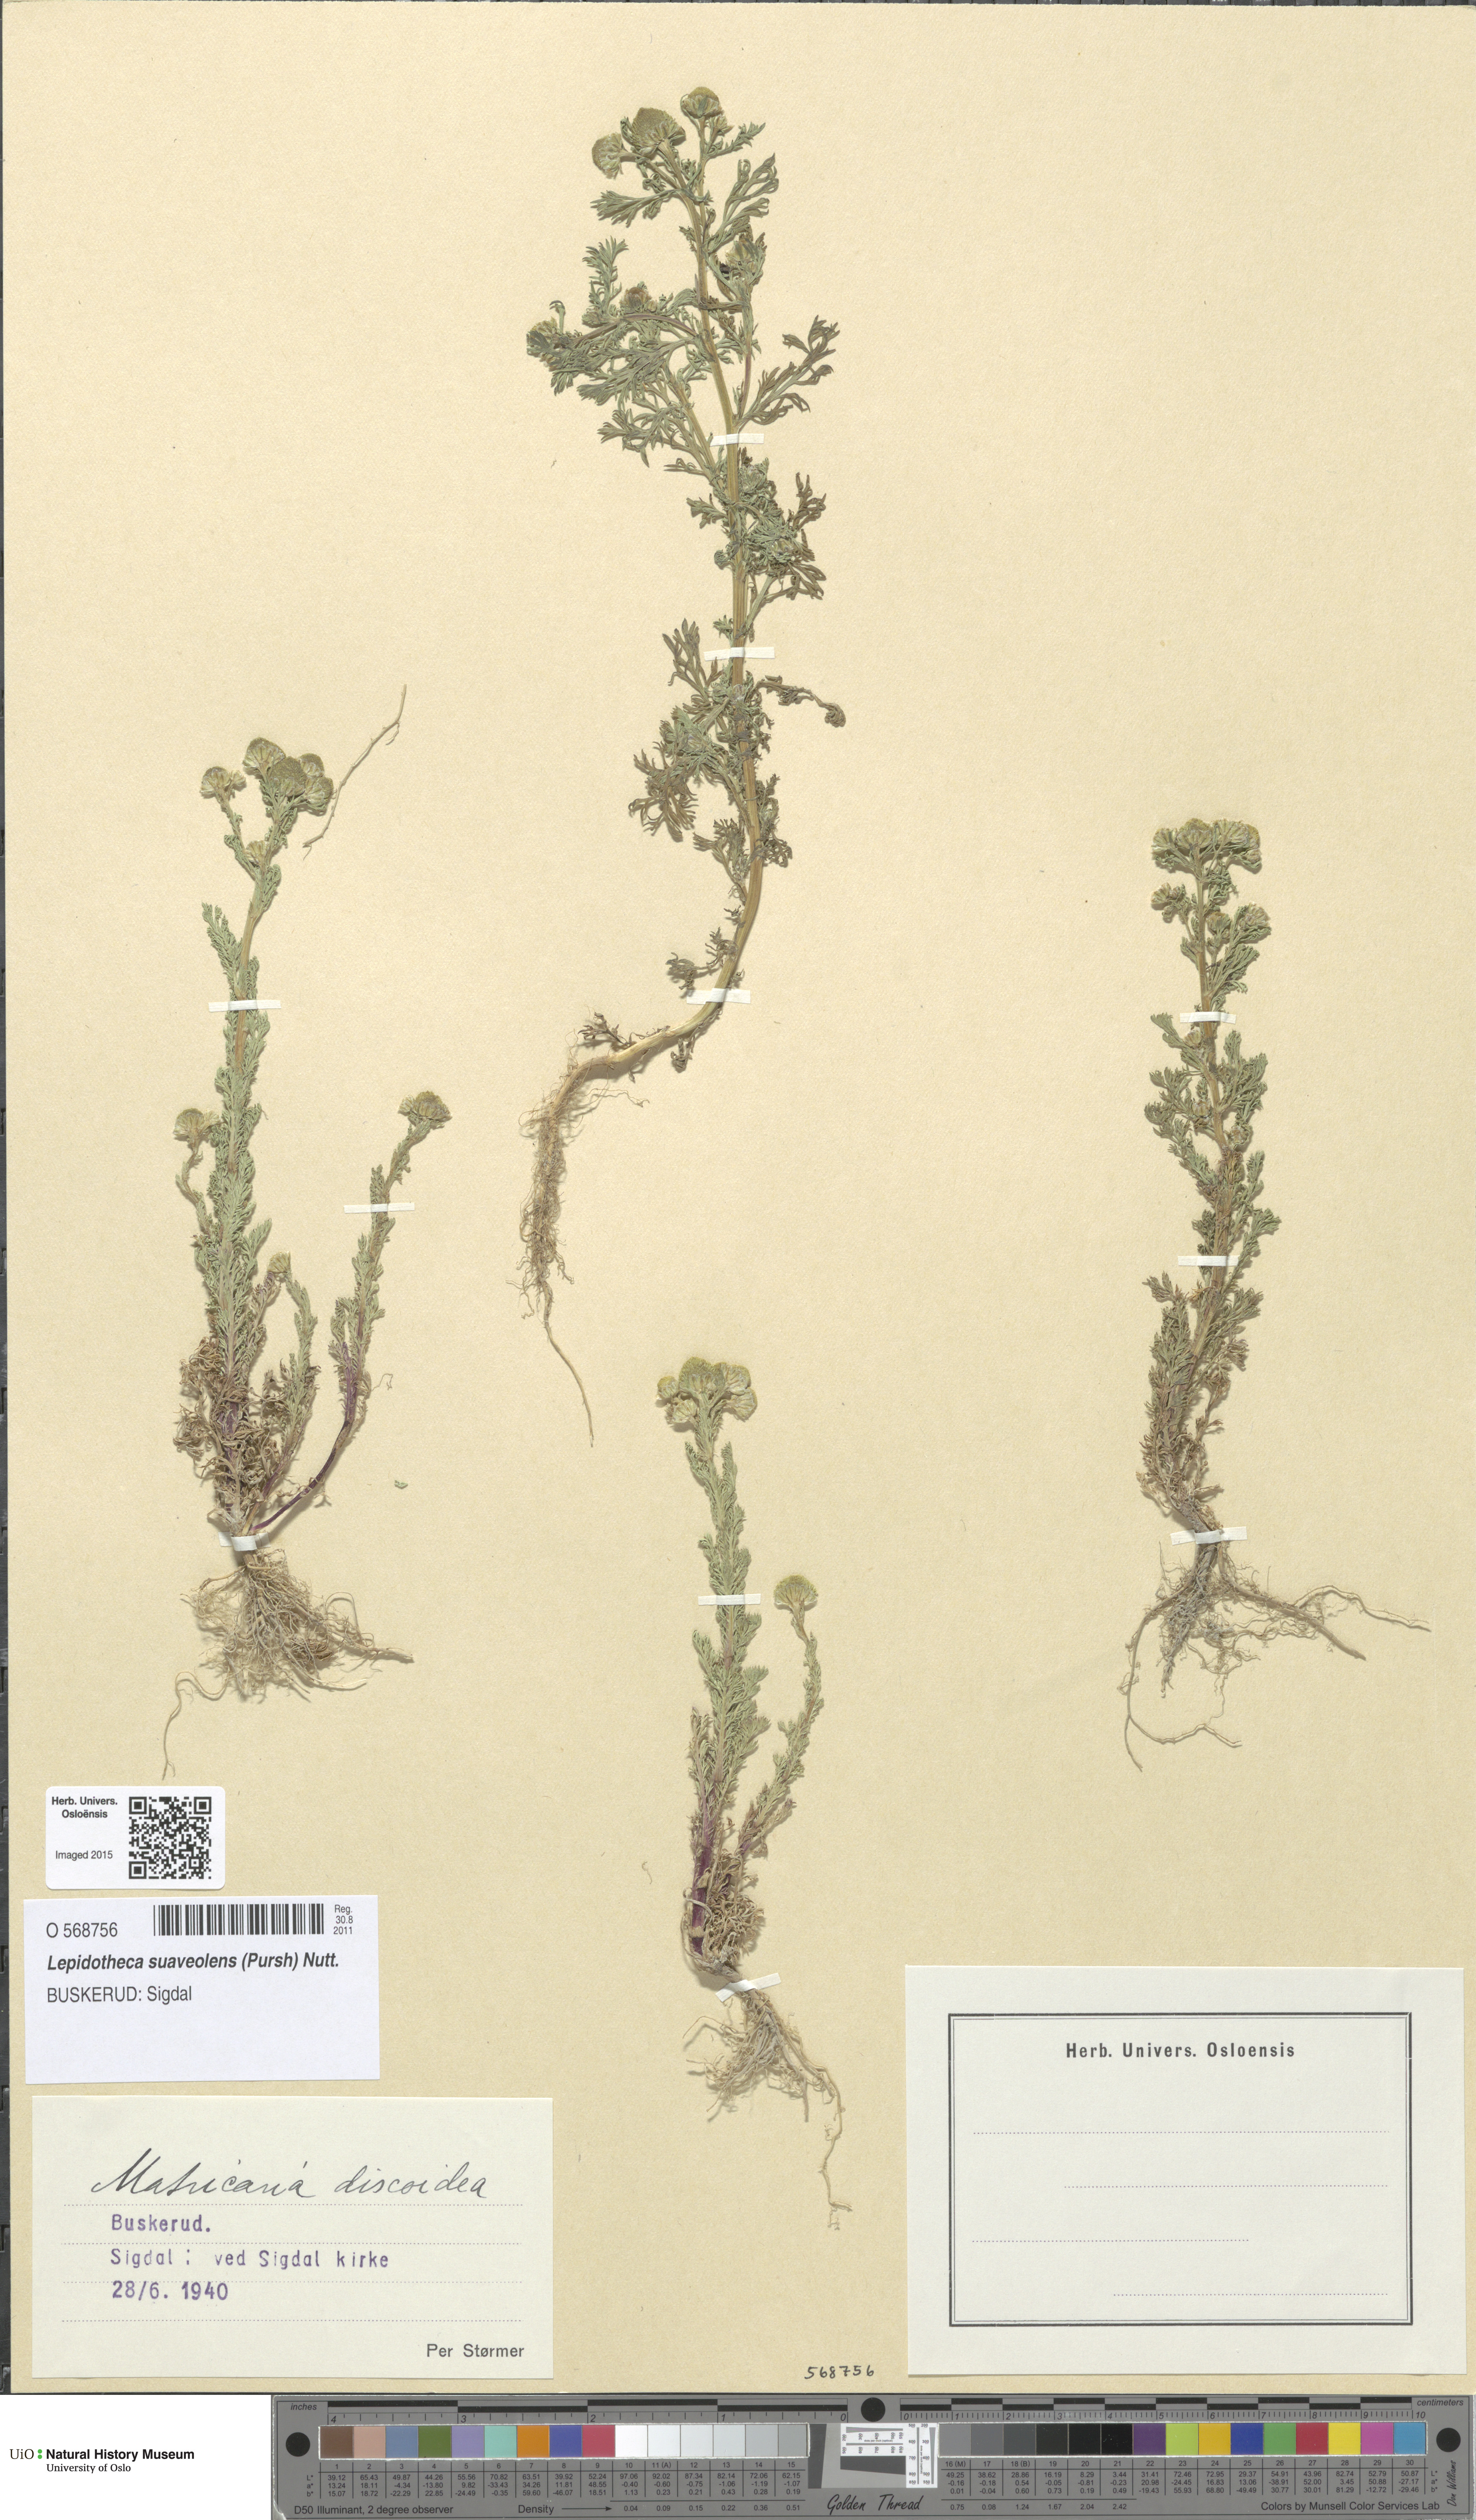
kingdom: Plantae
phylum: Tracheophyta
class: Magnoliopsida
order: Asterales
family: Asteraceae
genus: Matricaria
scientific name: Matricaria discoidea
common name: Disc mayweed
